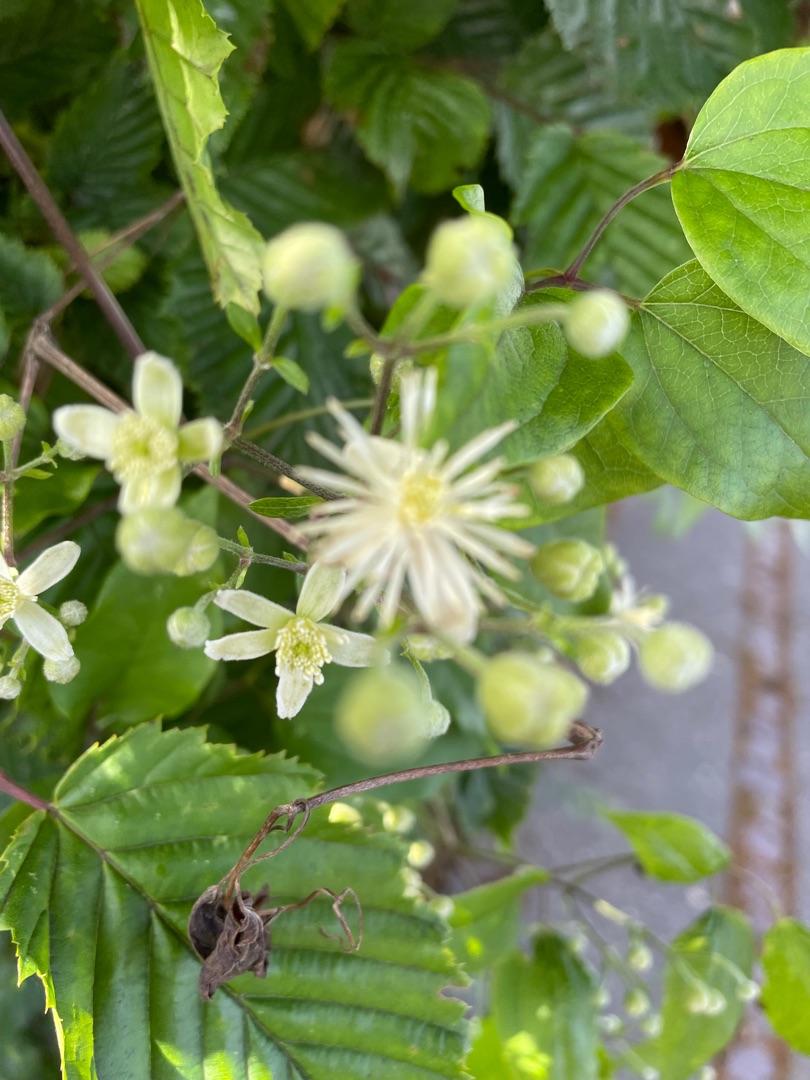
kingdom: Plantae
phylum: Tracheophyta
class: Magnoliopsida
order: Ranunculales
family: Ranunculaceae
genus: Clematis
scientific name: Clematis vitalba
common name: Skovranke
